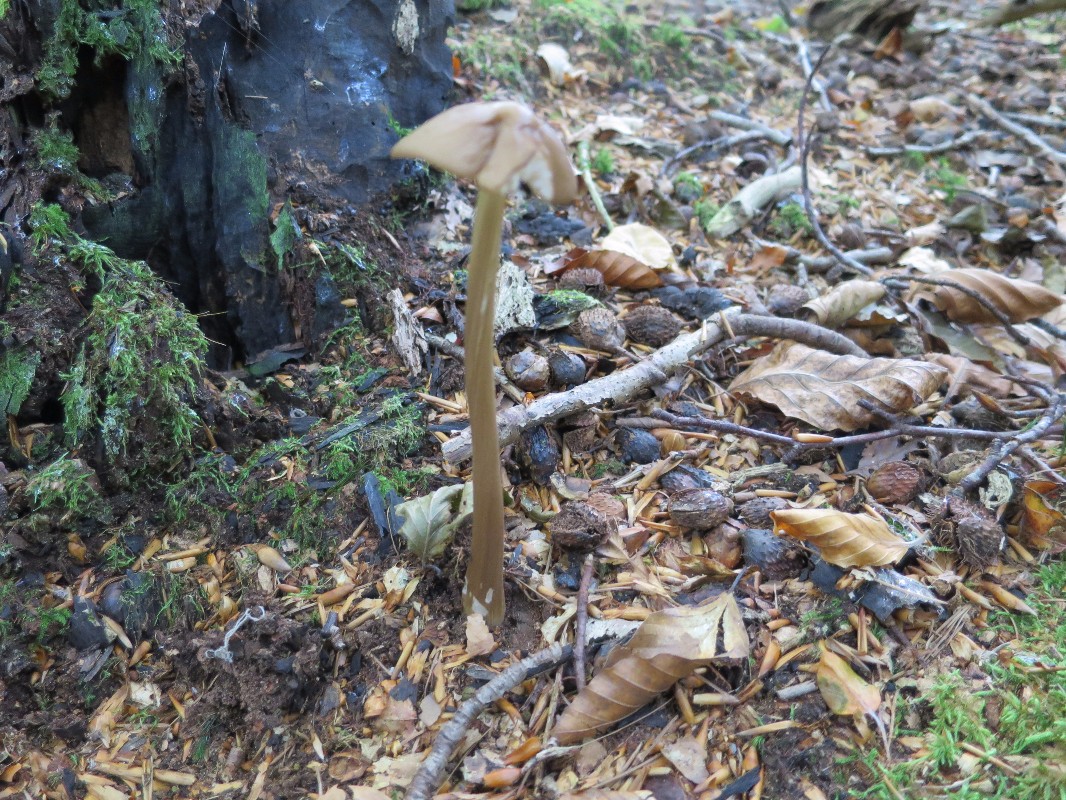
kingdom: Fungi
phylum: Basidiomycota
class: Agaricomycetes
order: Agaricales
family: Physalacriaceae
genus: Hymenopellis
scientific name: Hymenopellis radicata
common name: almindelig pælerodshat
